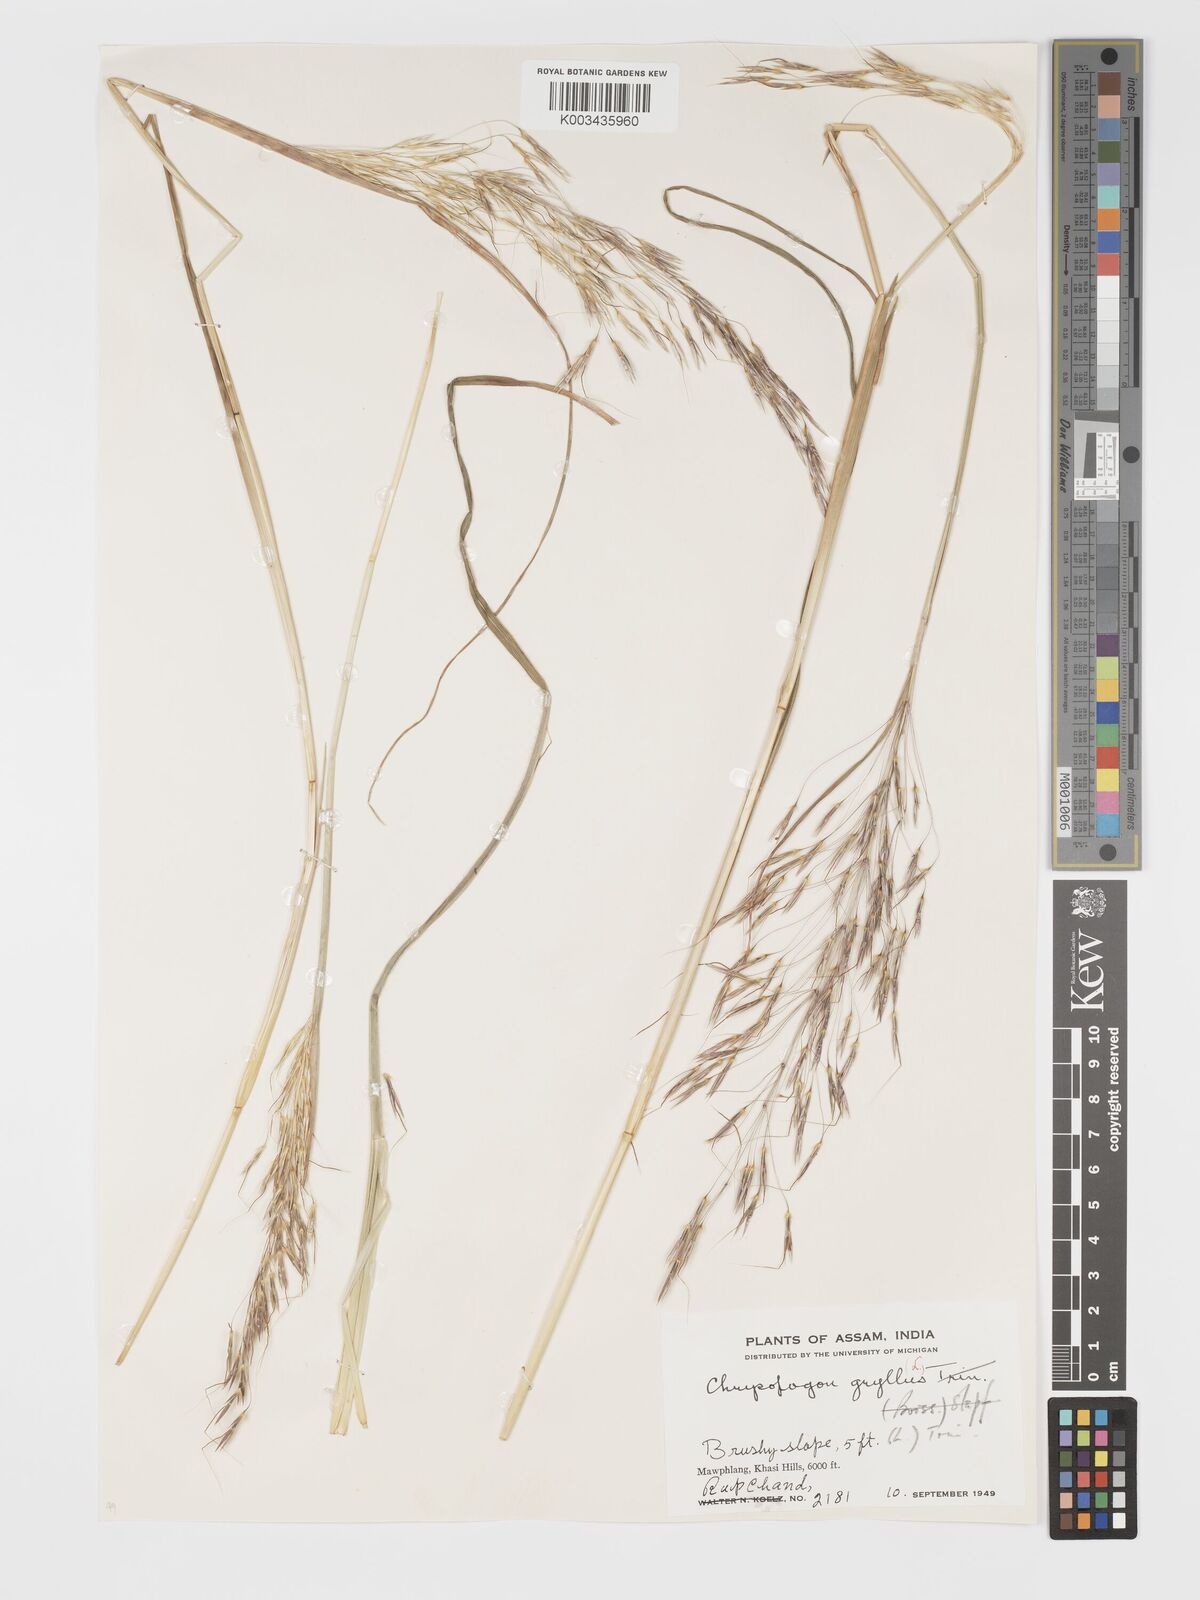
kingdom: Plantae
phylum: Tracheophyta
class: Liliopsida
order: Poales
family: Poaceae
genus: Chrysopogon
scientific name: Chrysopogon gryllus
